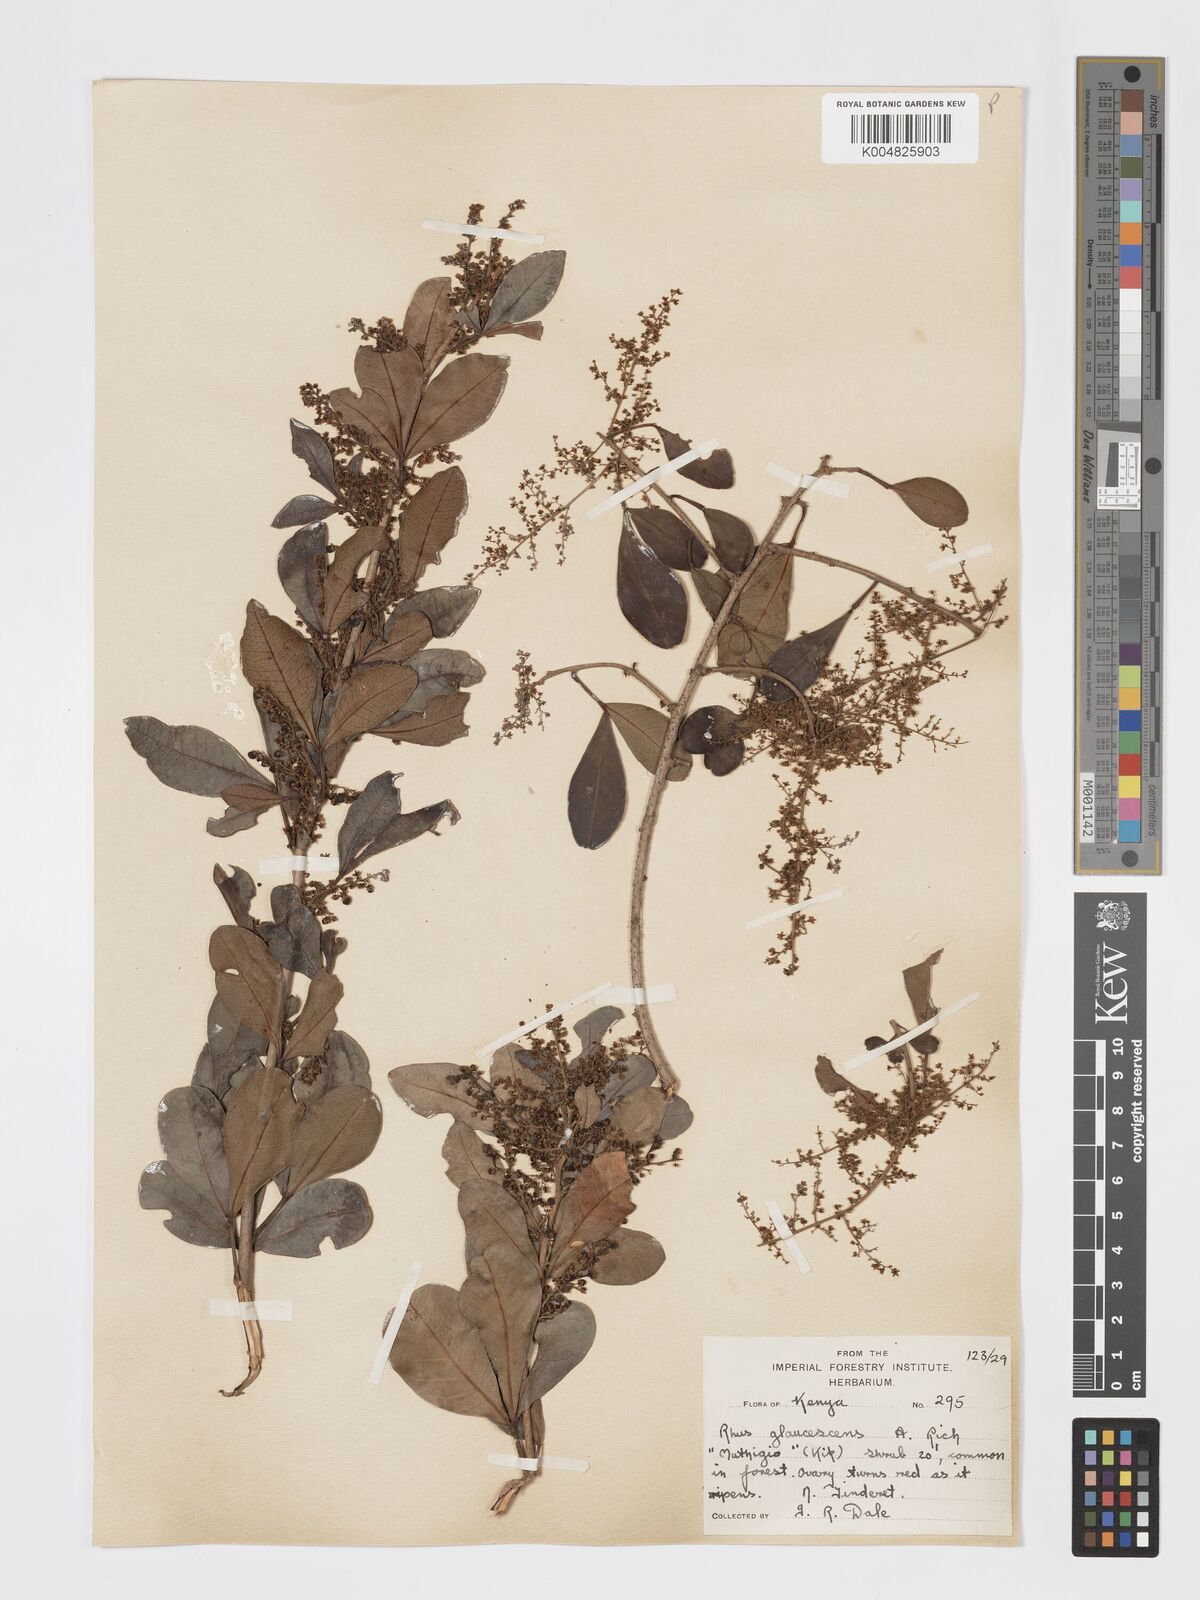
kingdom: Plantae
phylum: Tracheophyta
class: Magnoliopsida
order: Sapindales
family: Anacardiaceae
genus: Searsia
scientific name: Searsia natalensis
